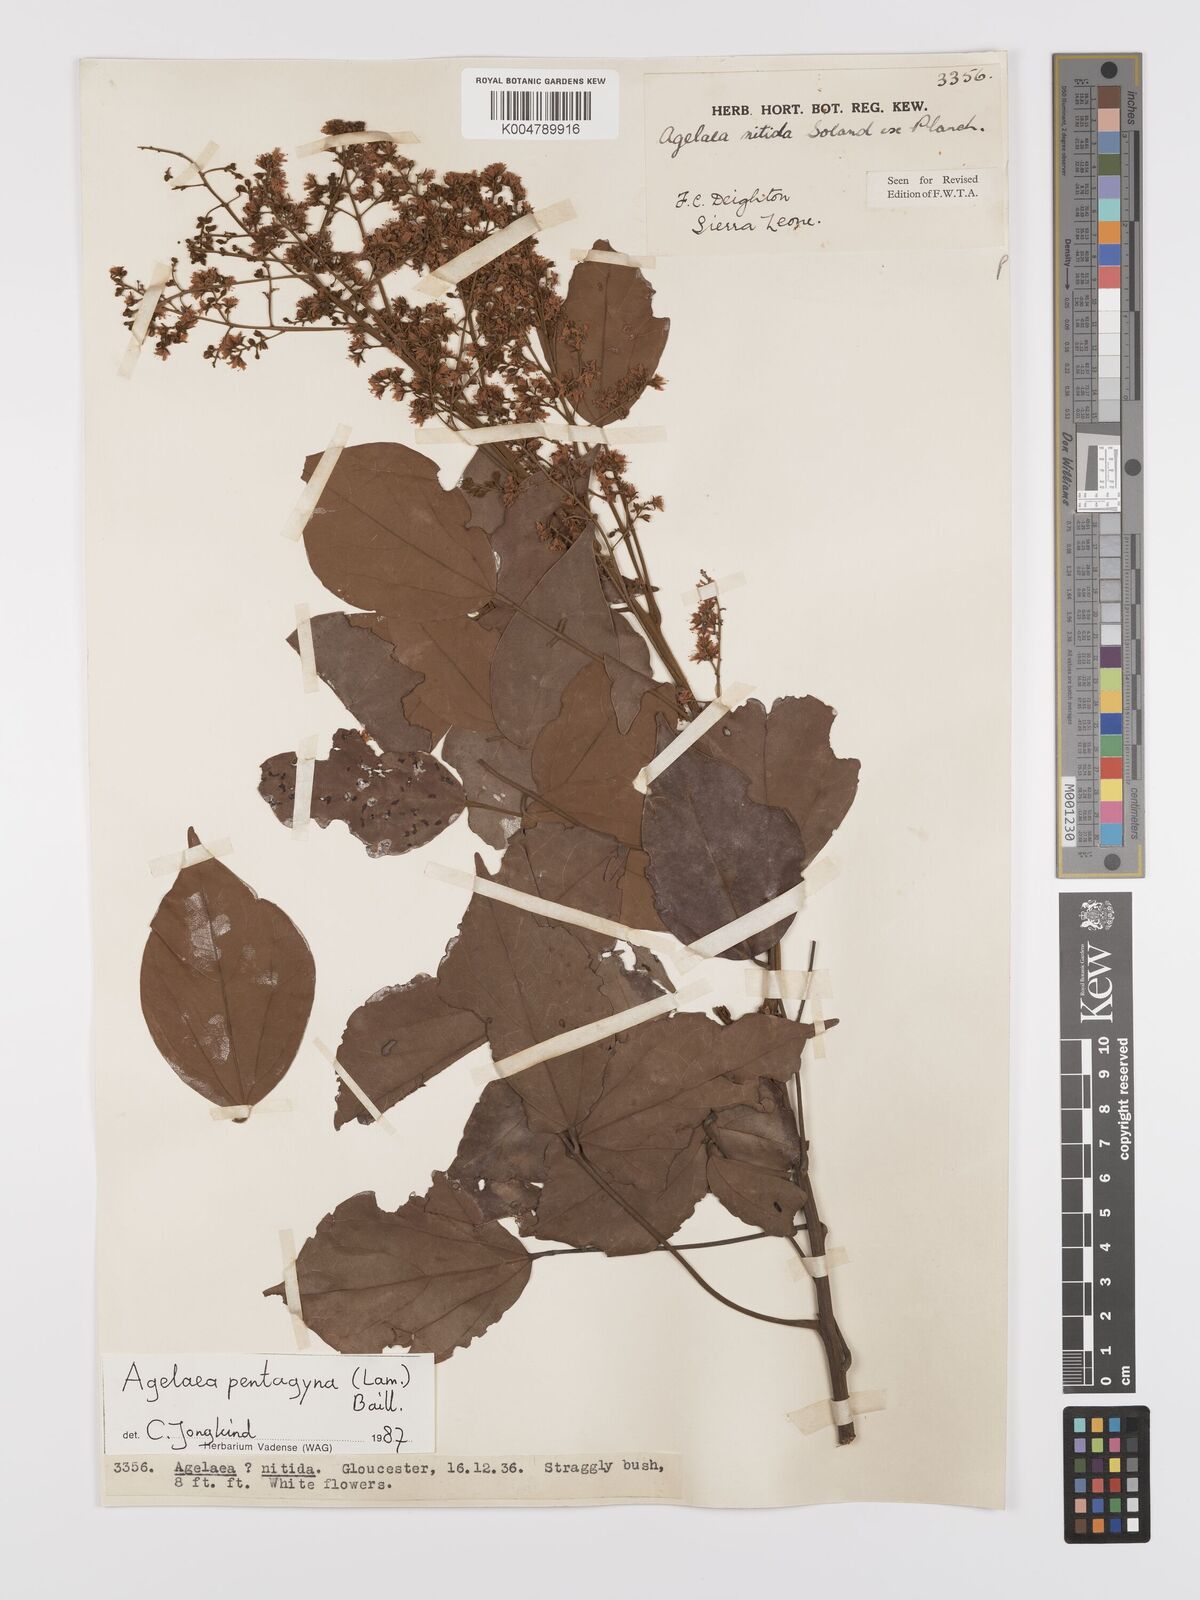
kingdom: Plantae
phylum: Tracheophyta
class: Magnoliopsida
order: Oxalidales
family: Connaraceae
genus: Agelaea
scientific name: Agelaea pentagyna
